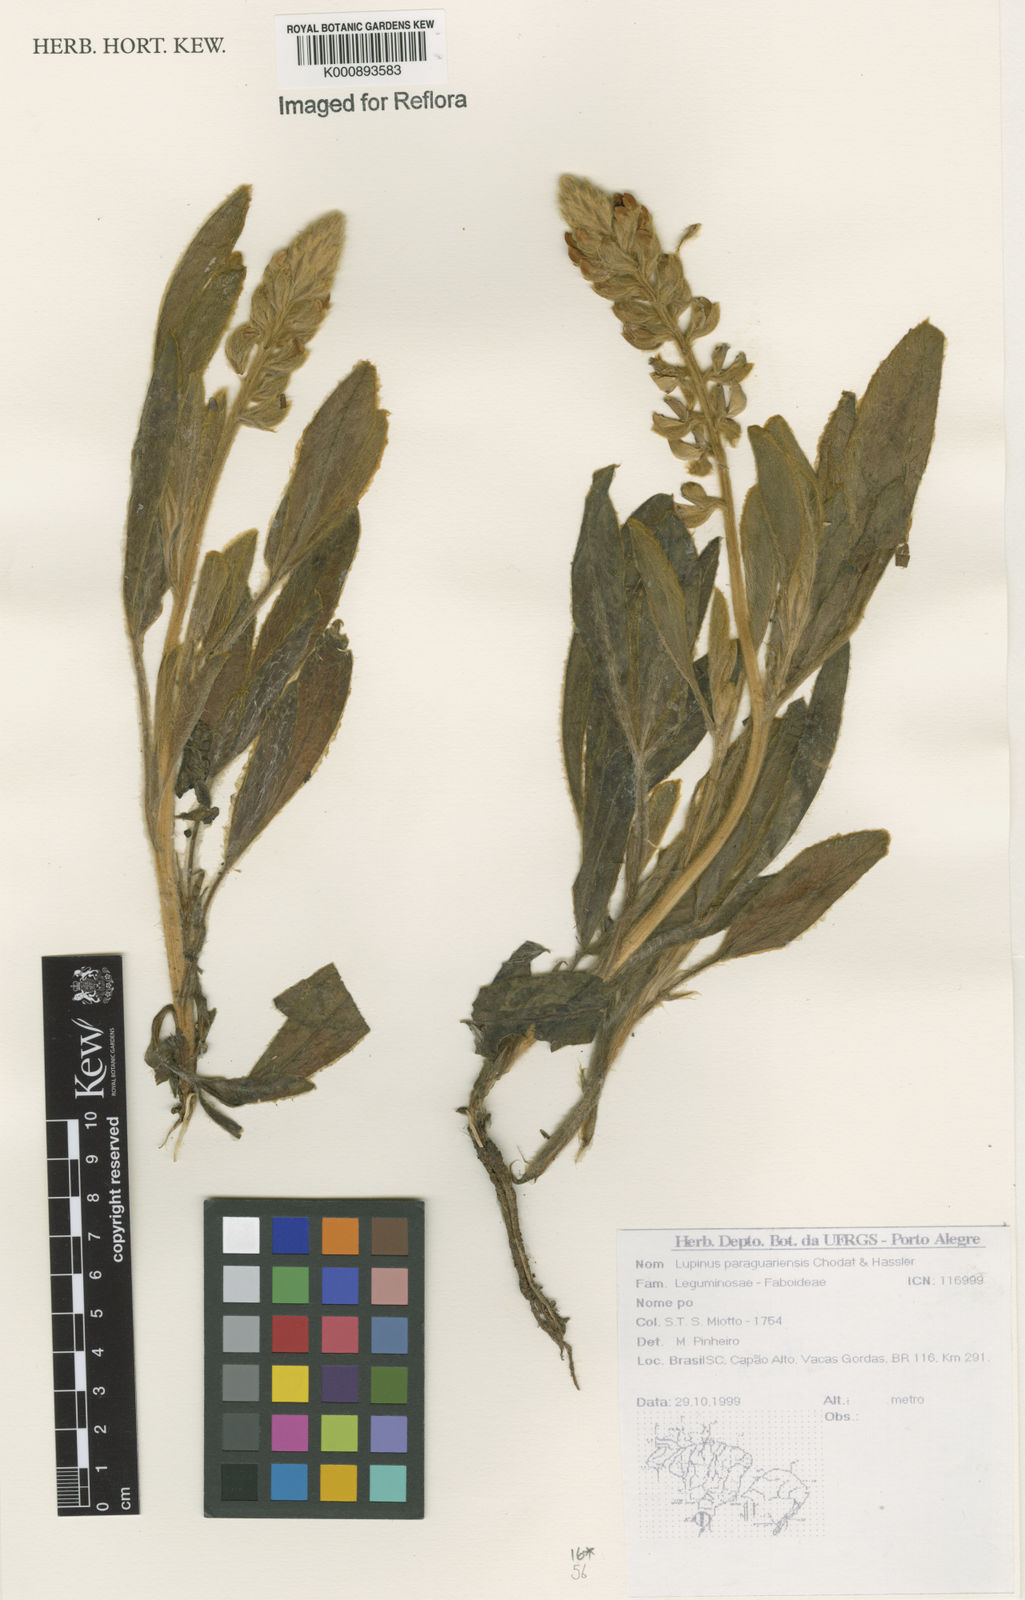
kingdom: Plantae
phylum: Tracheophyta
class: Magnoliopsida
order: Fabales
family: Fabaceae
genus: Lupinus
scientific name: Lupinus paraguariensis
